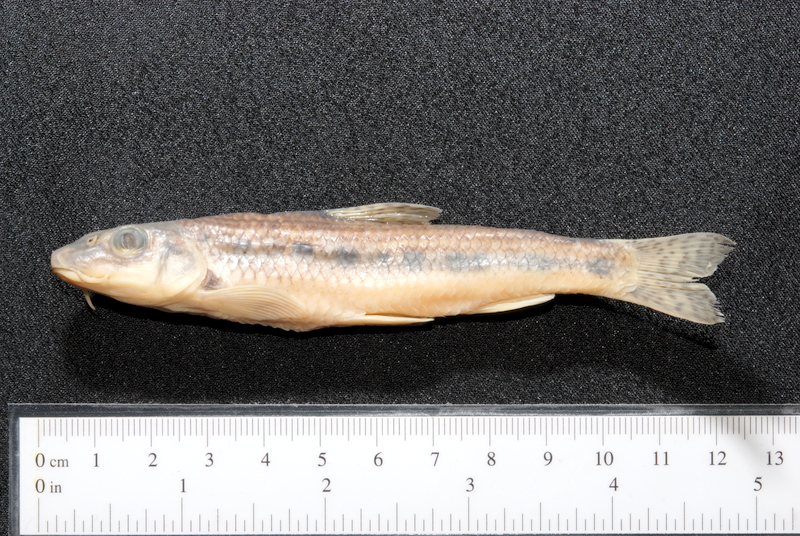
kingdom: Animalia
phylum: Chordata
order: Cypriniformes
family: Cyprinidae
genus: Gobio
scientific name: Gobio gobio
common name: Gudgeon
